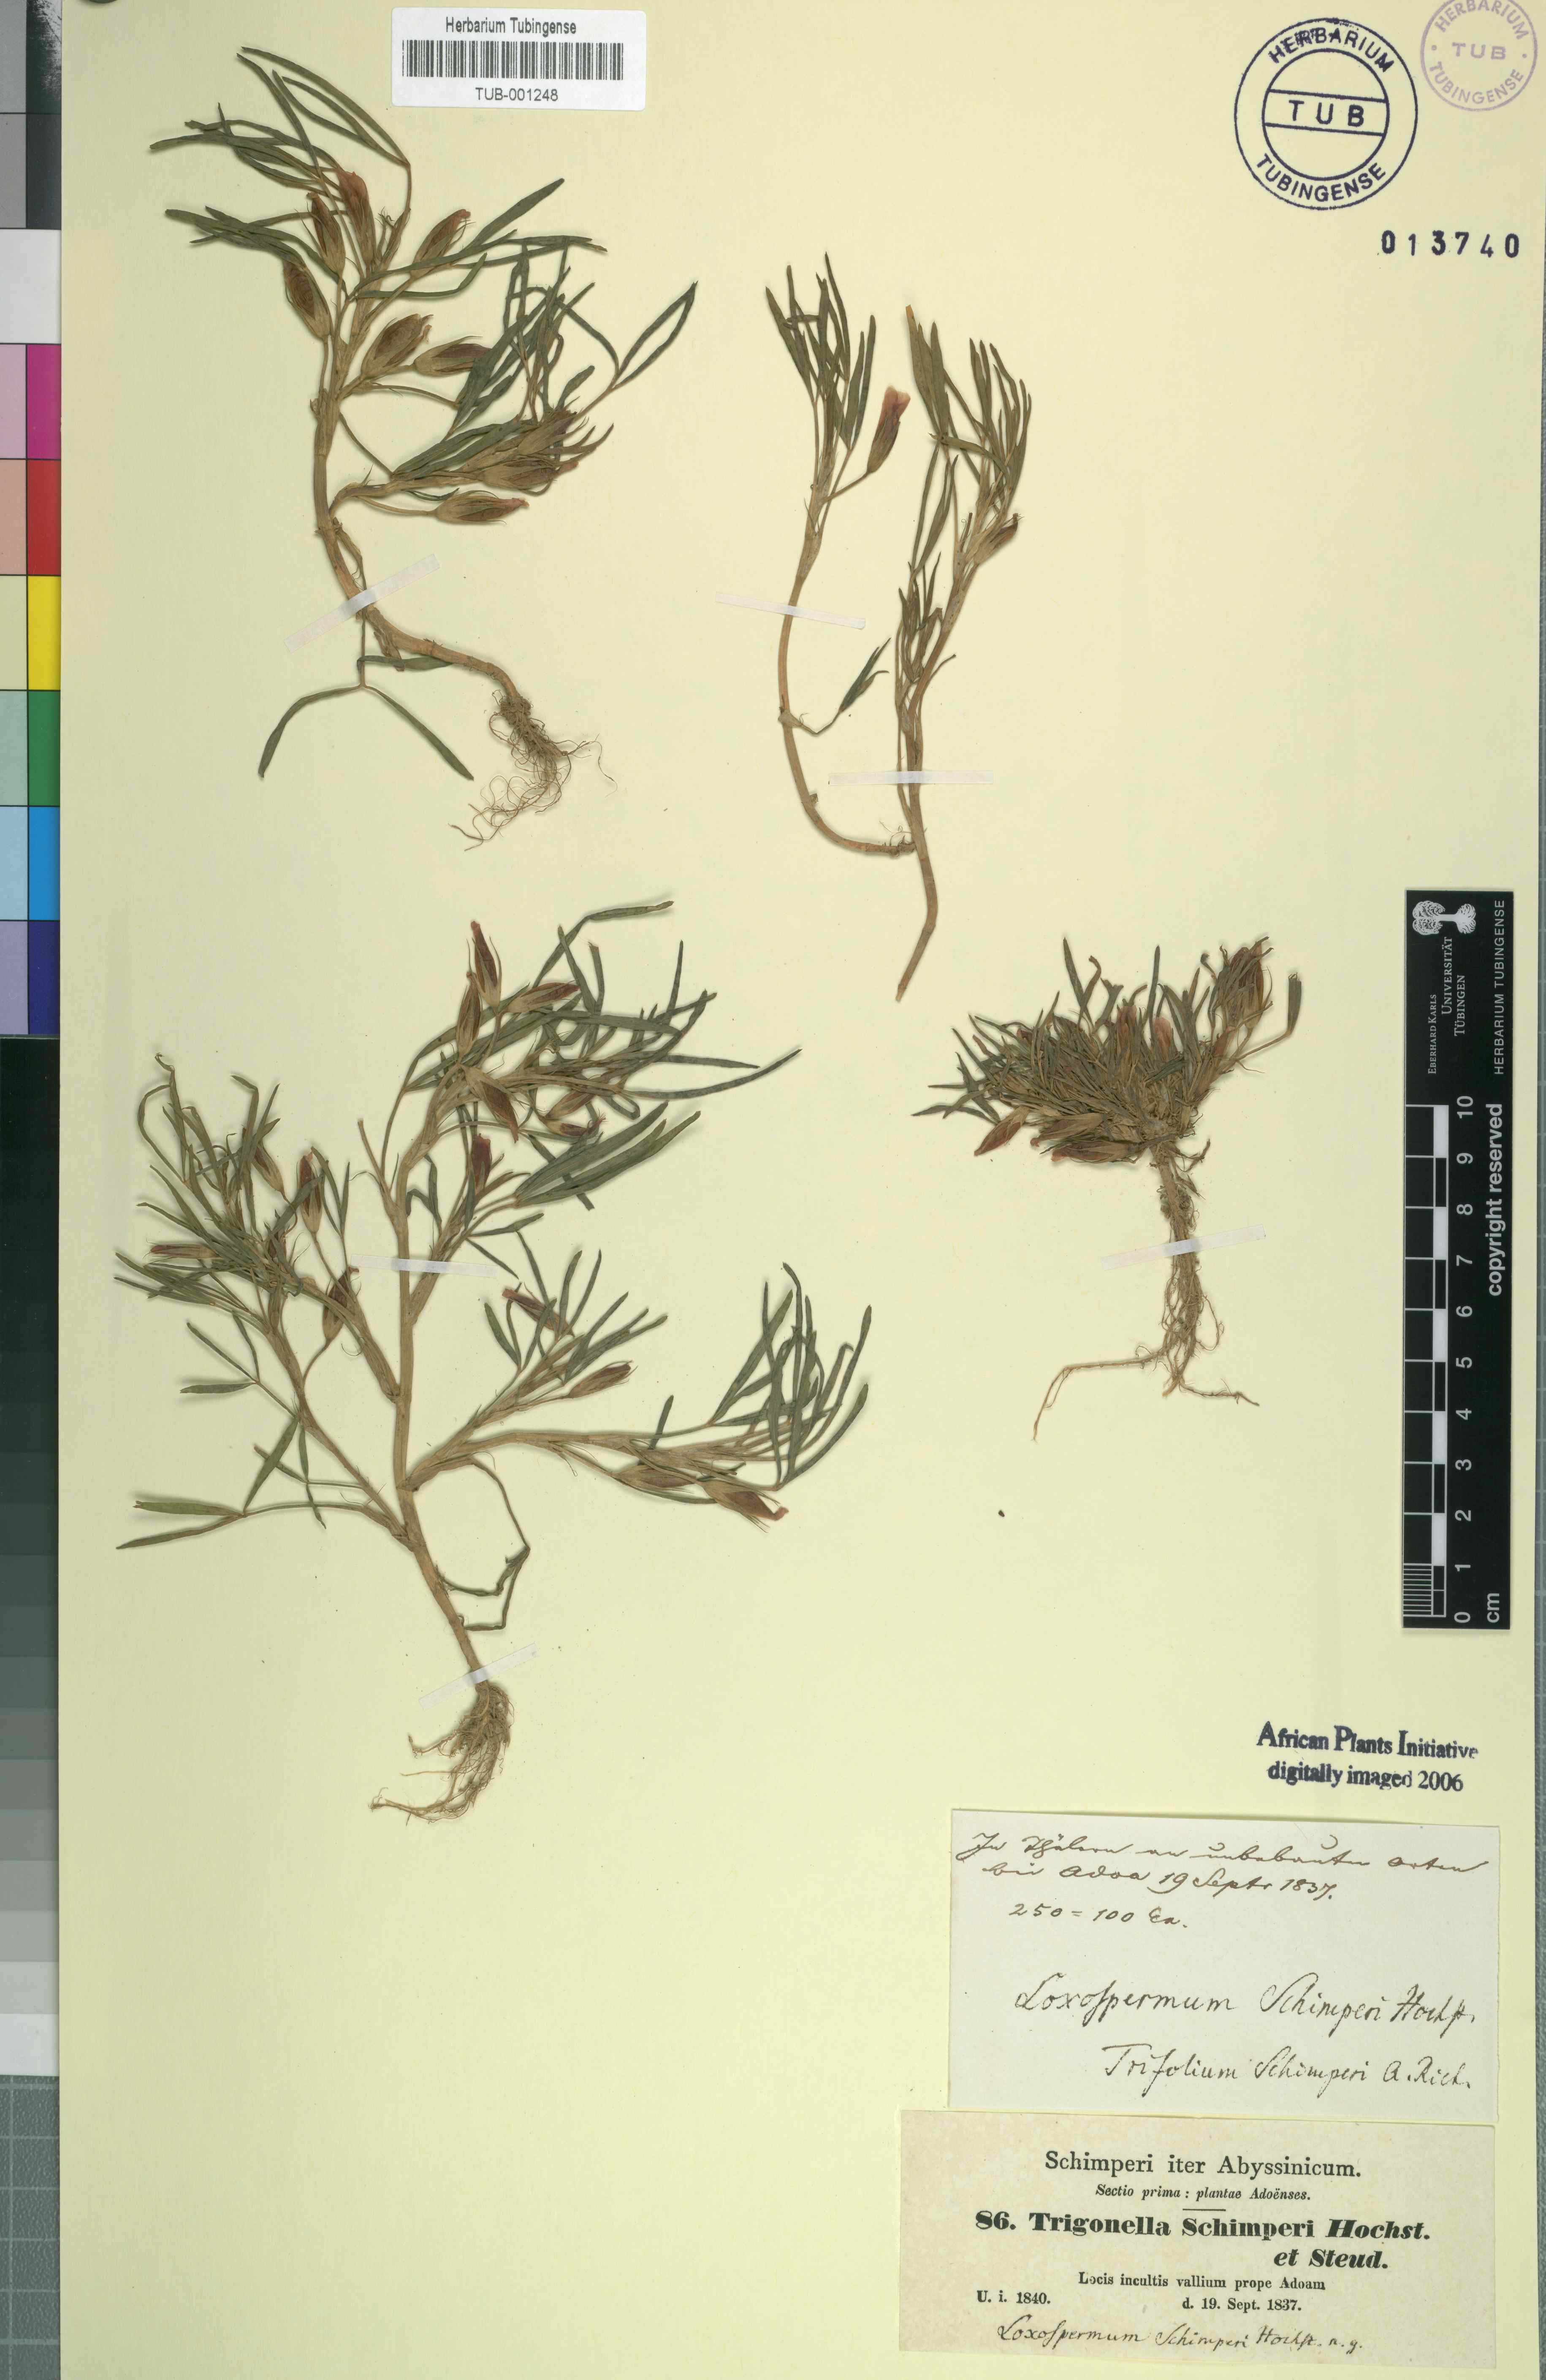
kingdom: Plantae
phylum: Tracheophyta
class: Magnoliopsida
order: Fabales
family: Fabaceae
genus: Trifolium
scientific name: Trifolium schimperi
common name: Schimper's clover
